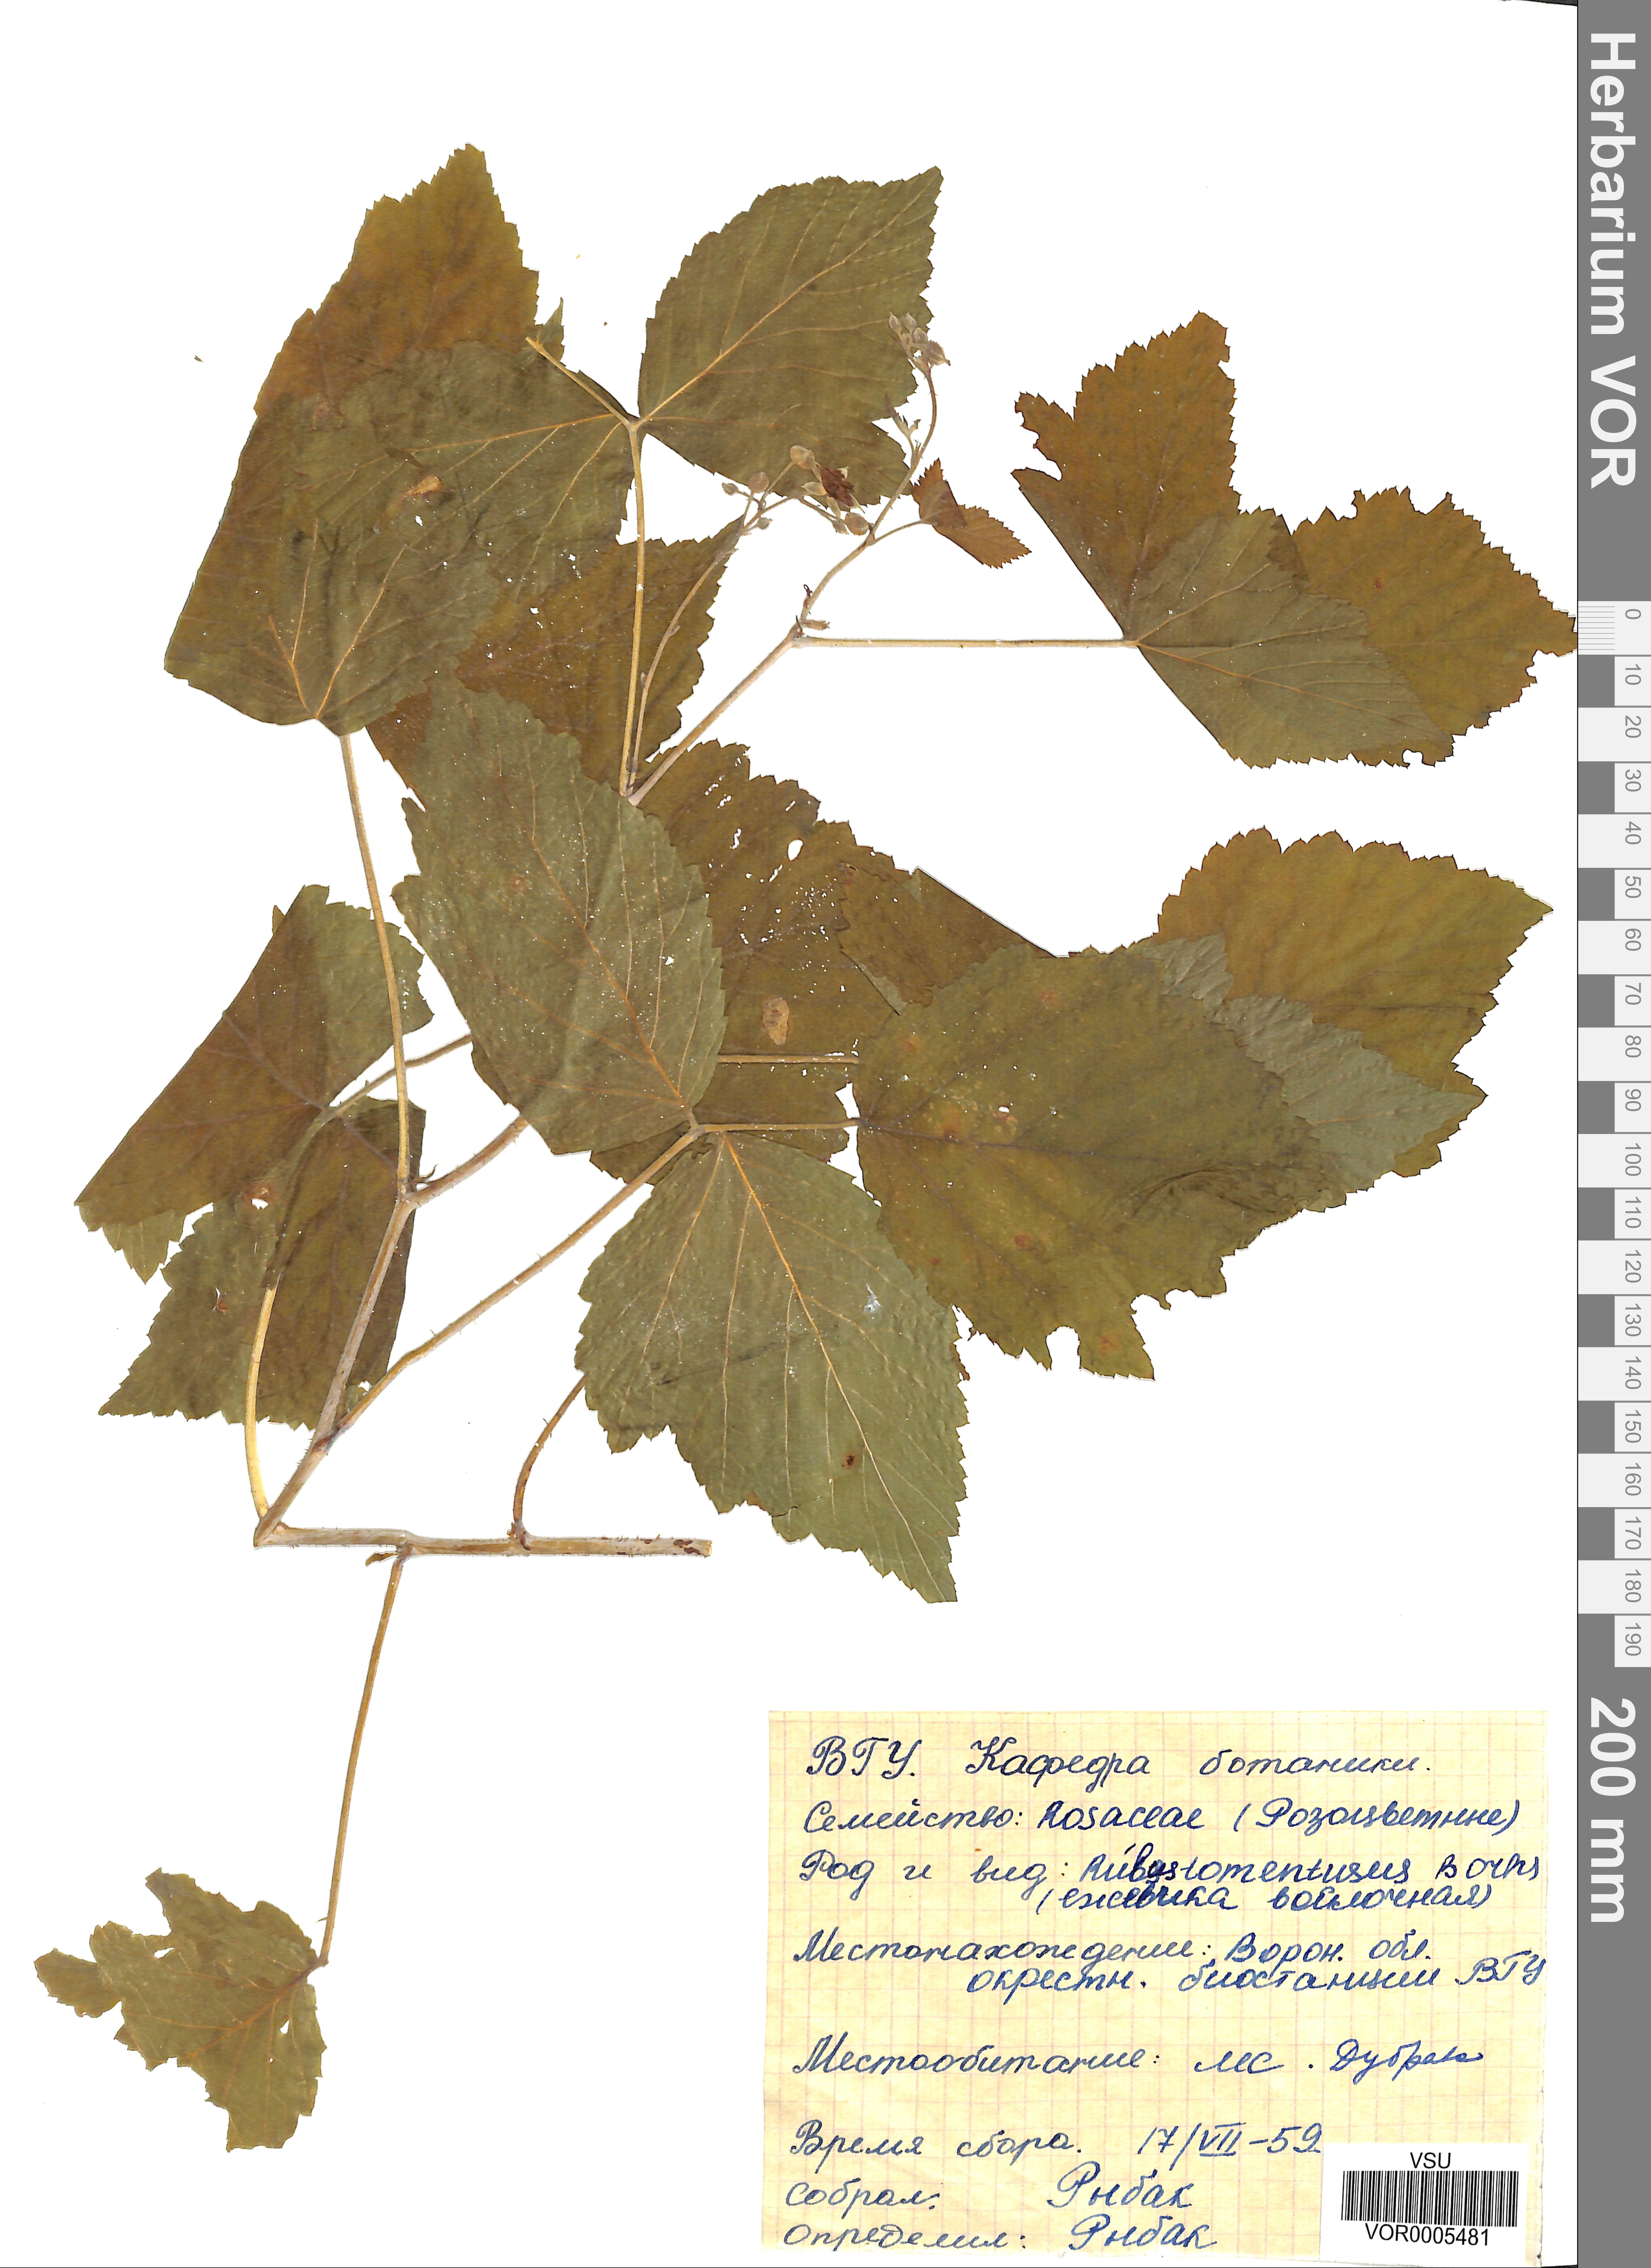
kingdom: Plantae
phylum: Tracheophyta
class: Magnoliopsida
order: Rosales
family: Rosaceae
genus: Rubus
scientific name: Rubus occidentalis
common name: Black raspberry
